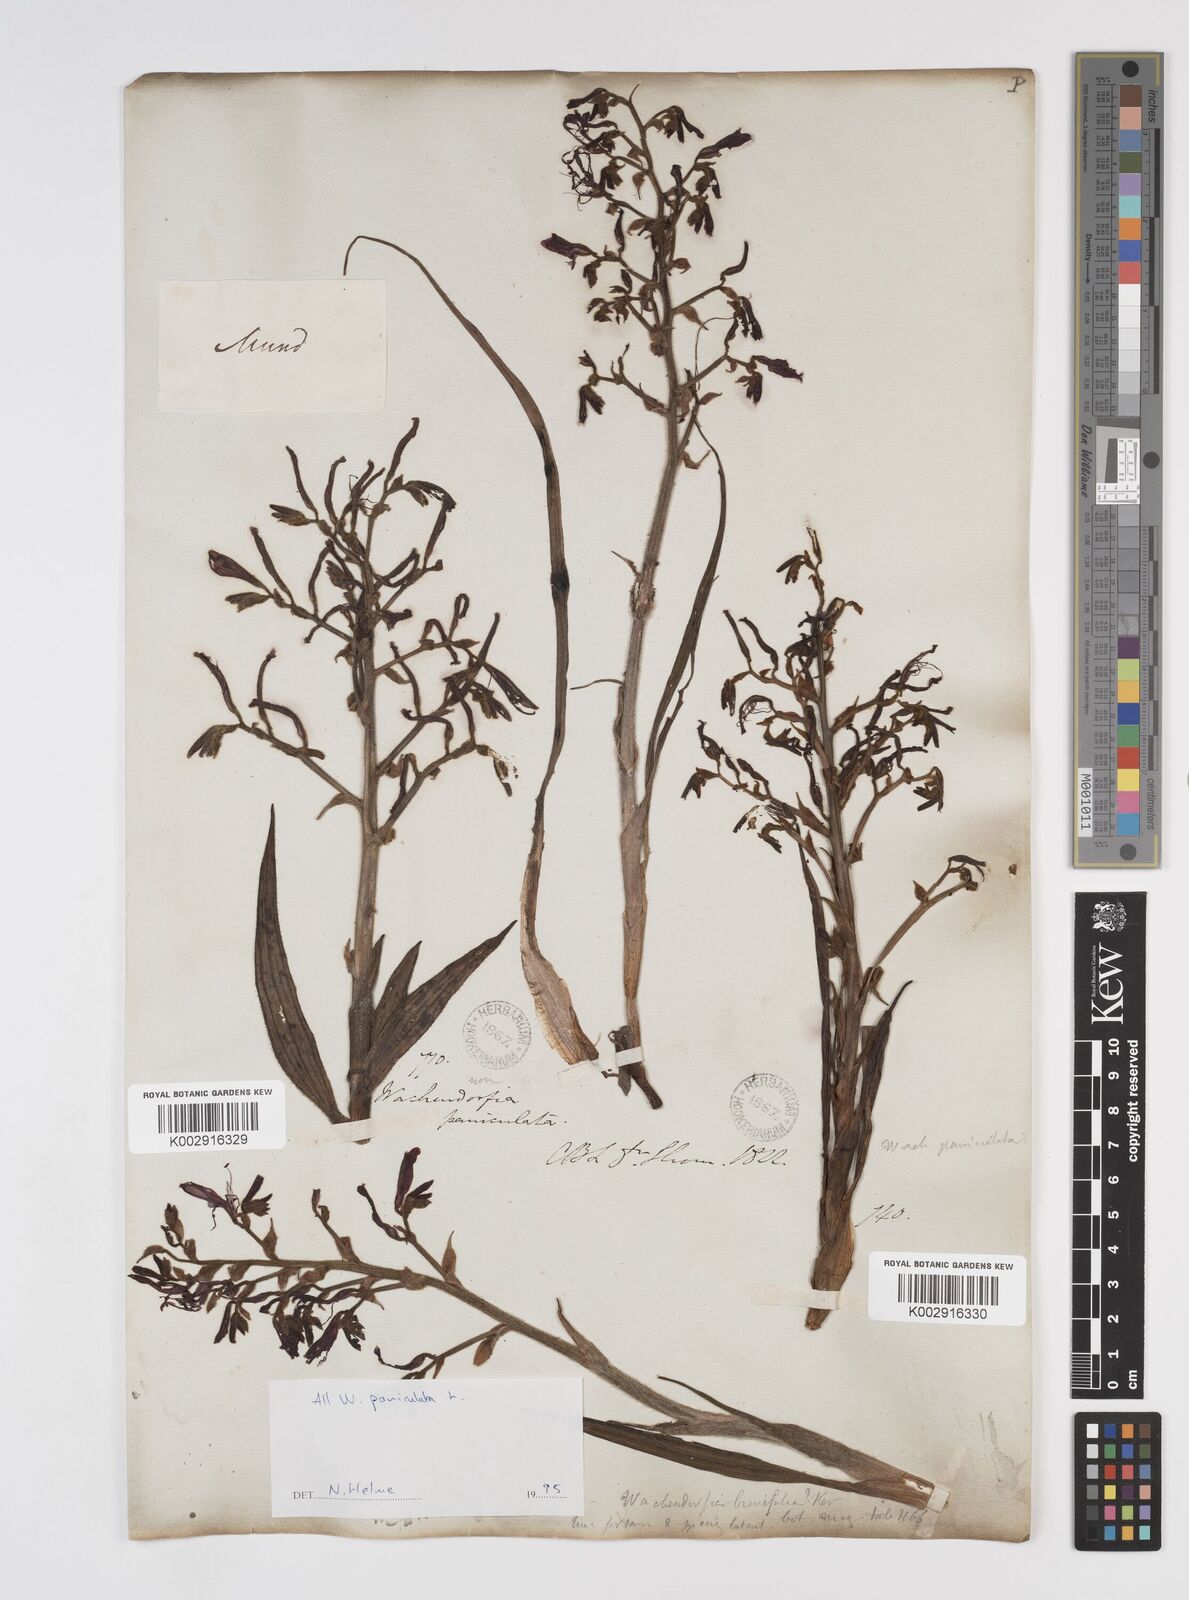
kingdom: Plantae
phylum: Tracheophyta
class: Liliopsida
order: Commelinales
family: Haemodoraceae
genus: Wachendorfia
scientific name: Wachendorfia paniculata
